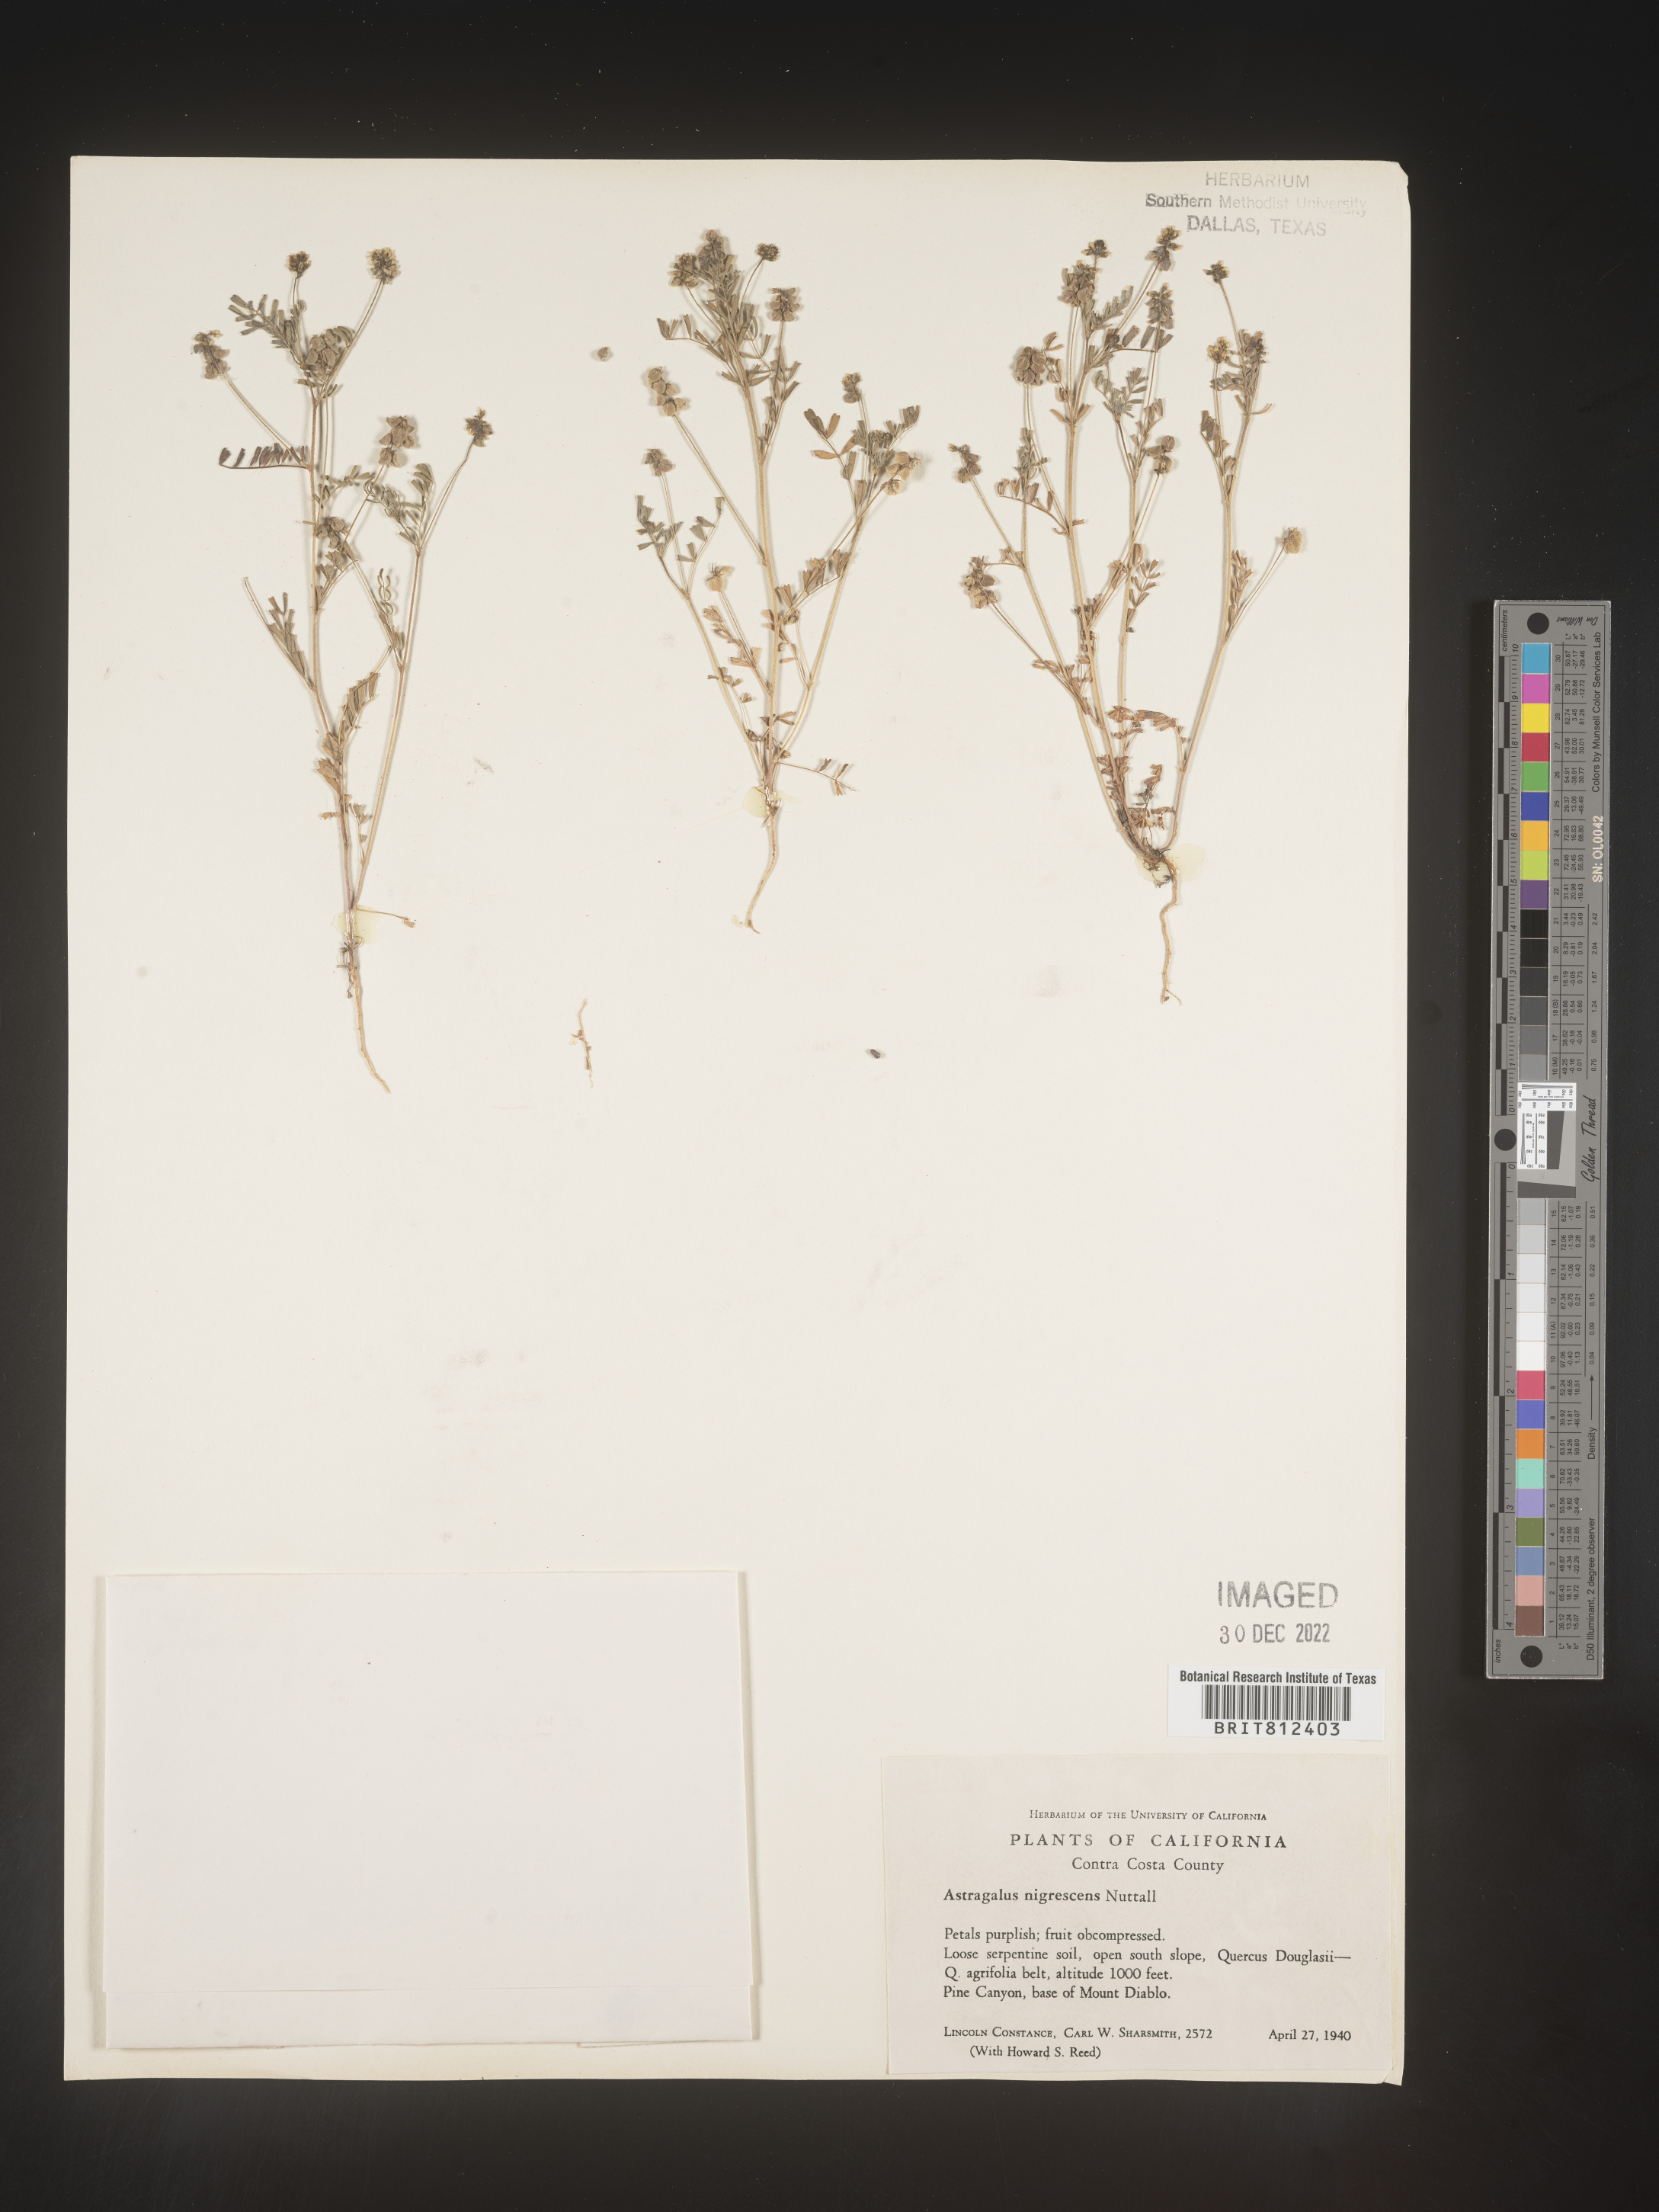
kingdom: Plantae
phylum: Tracheophyta
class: Magnoliopsida
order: Fabales
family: Fabaceae
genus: Astragalus
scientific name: Astragalus
